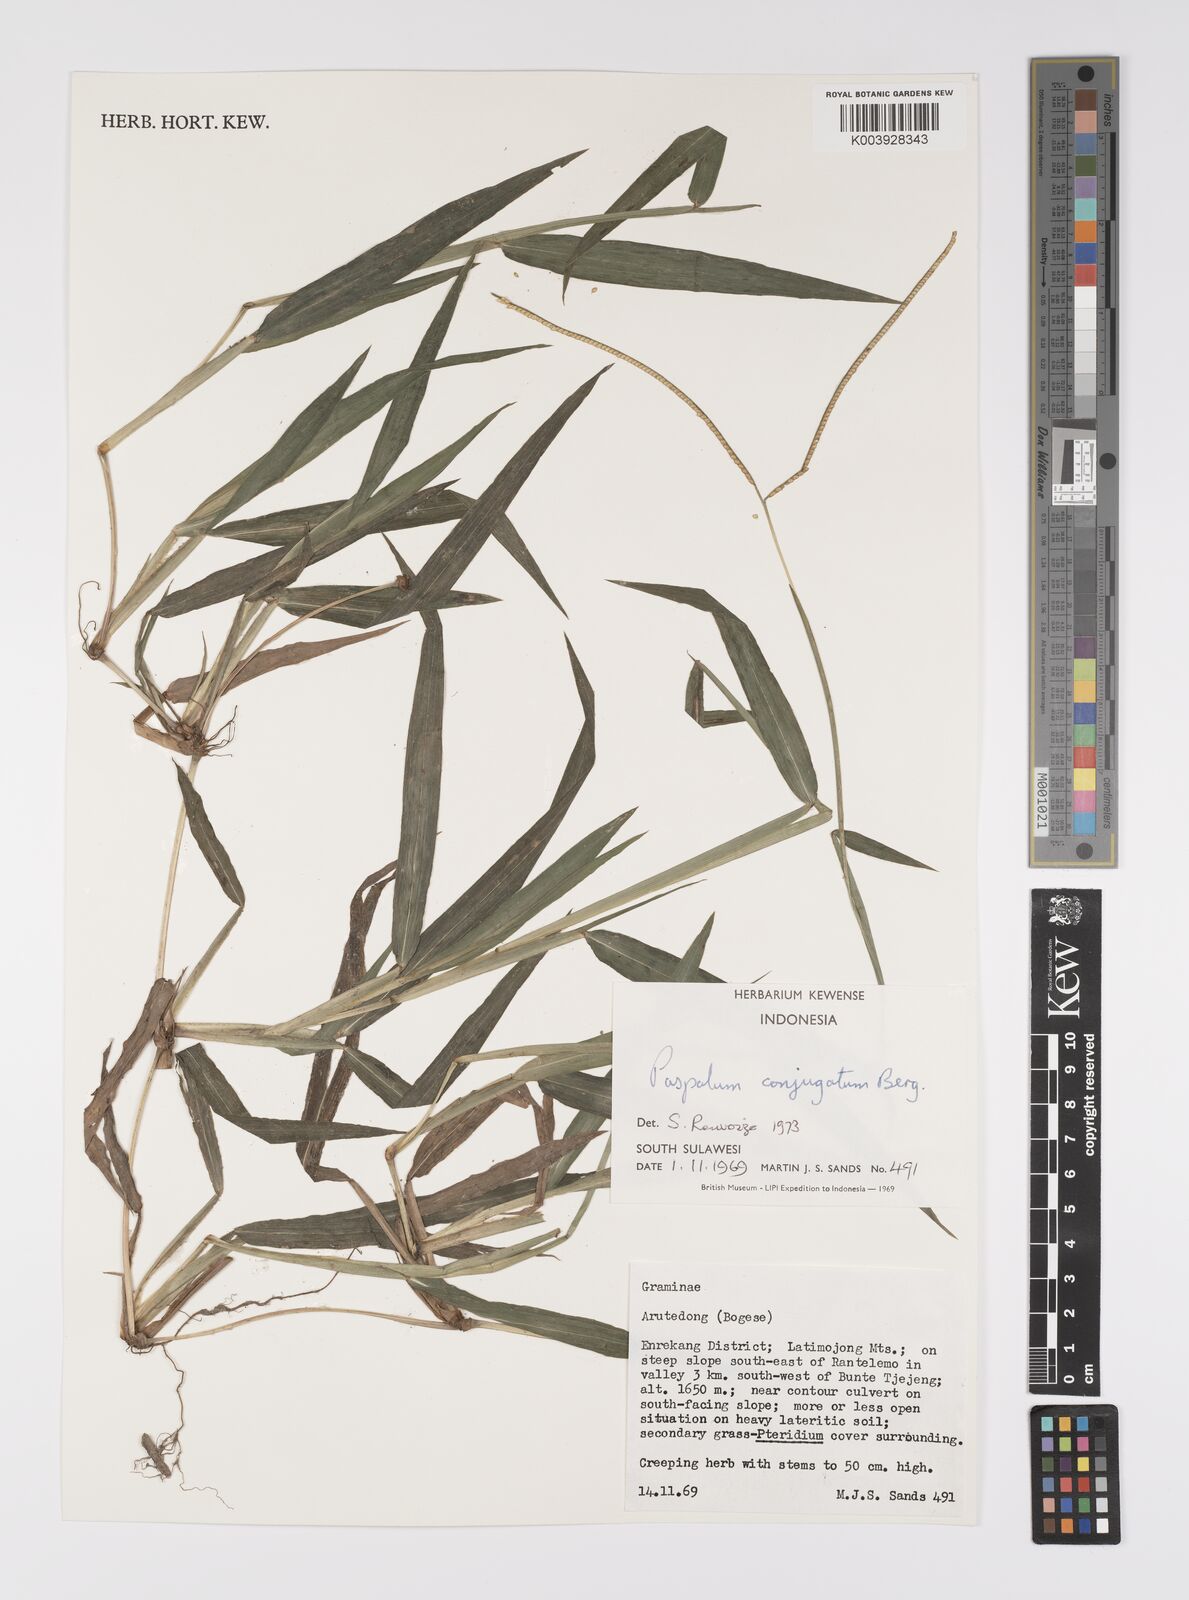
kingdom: Plantae
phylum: Tracheophyta
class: Liliopsida
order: Poales
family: Poaceae
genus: Paspalum
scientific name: Paspalum conjugatum
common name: Hilograss
